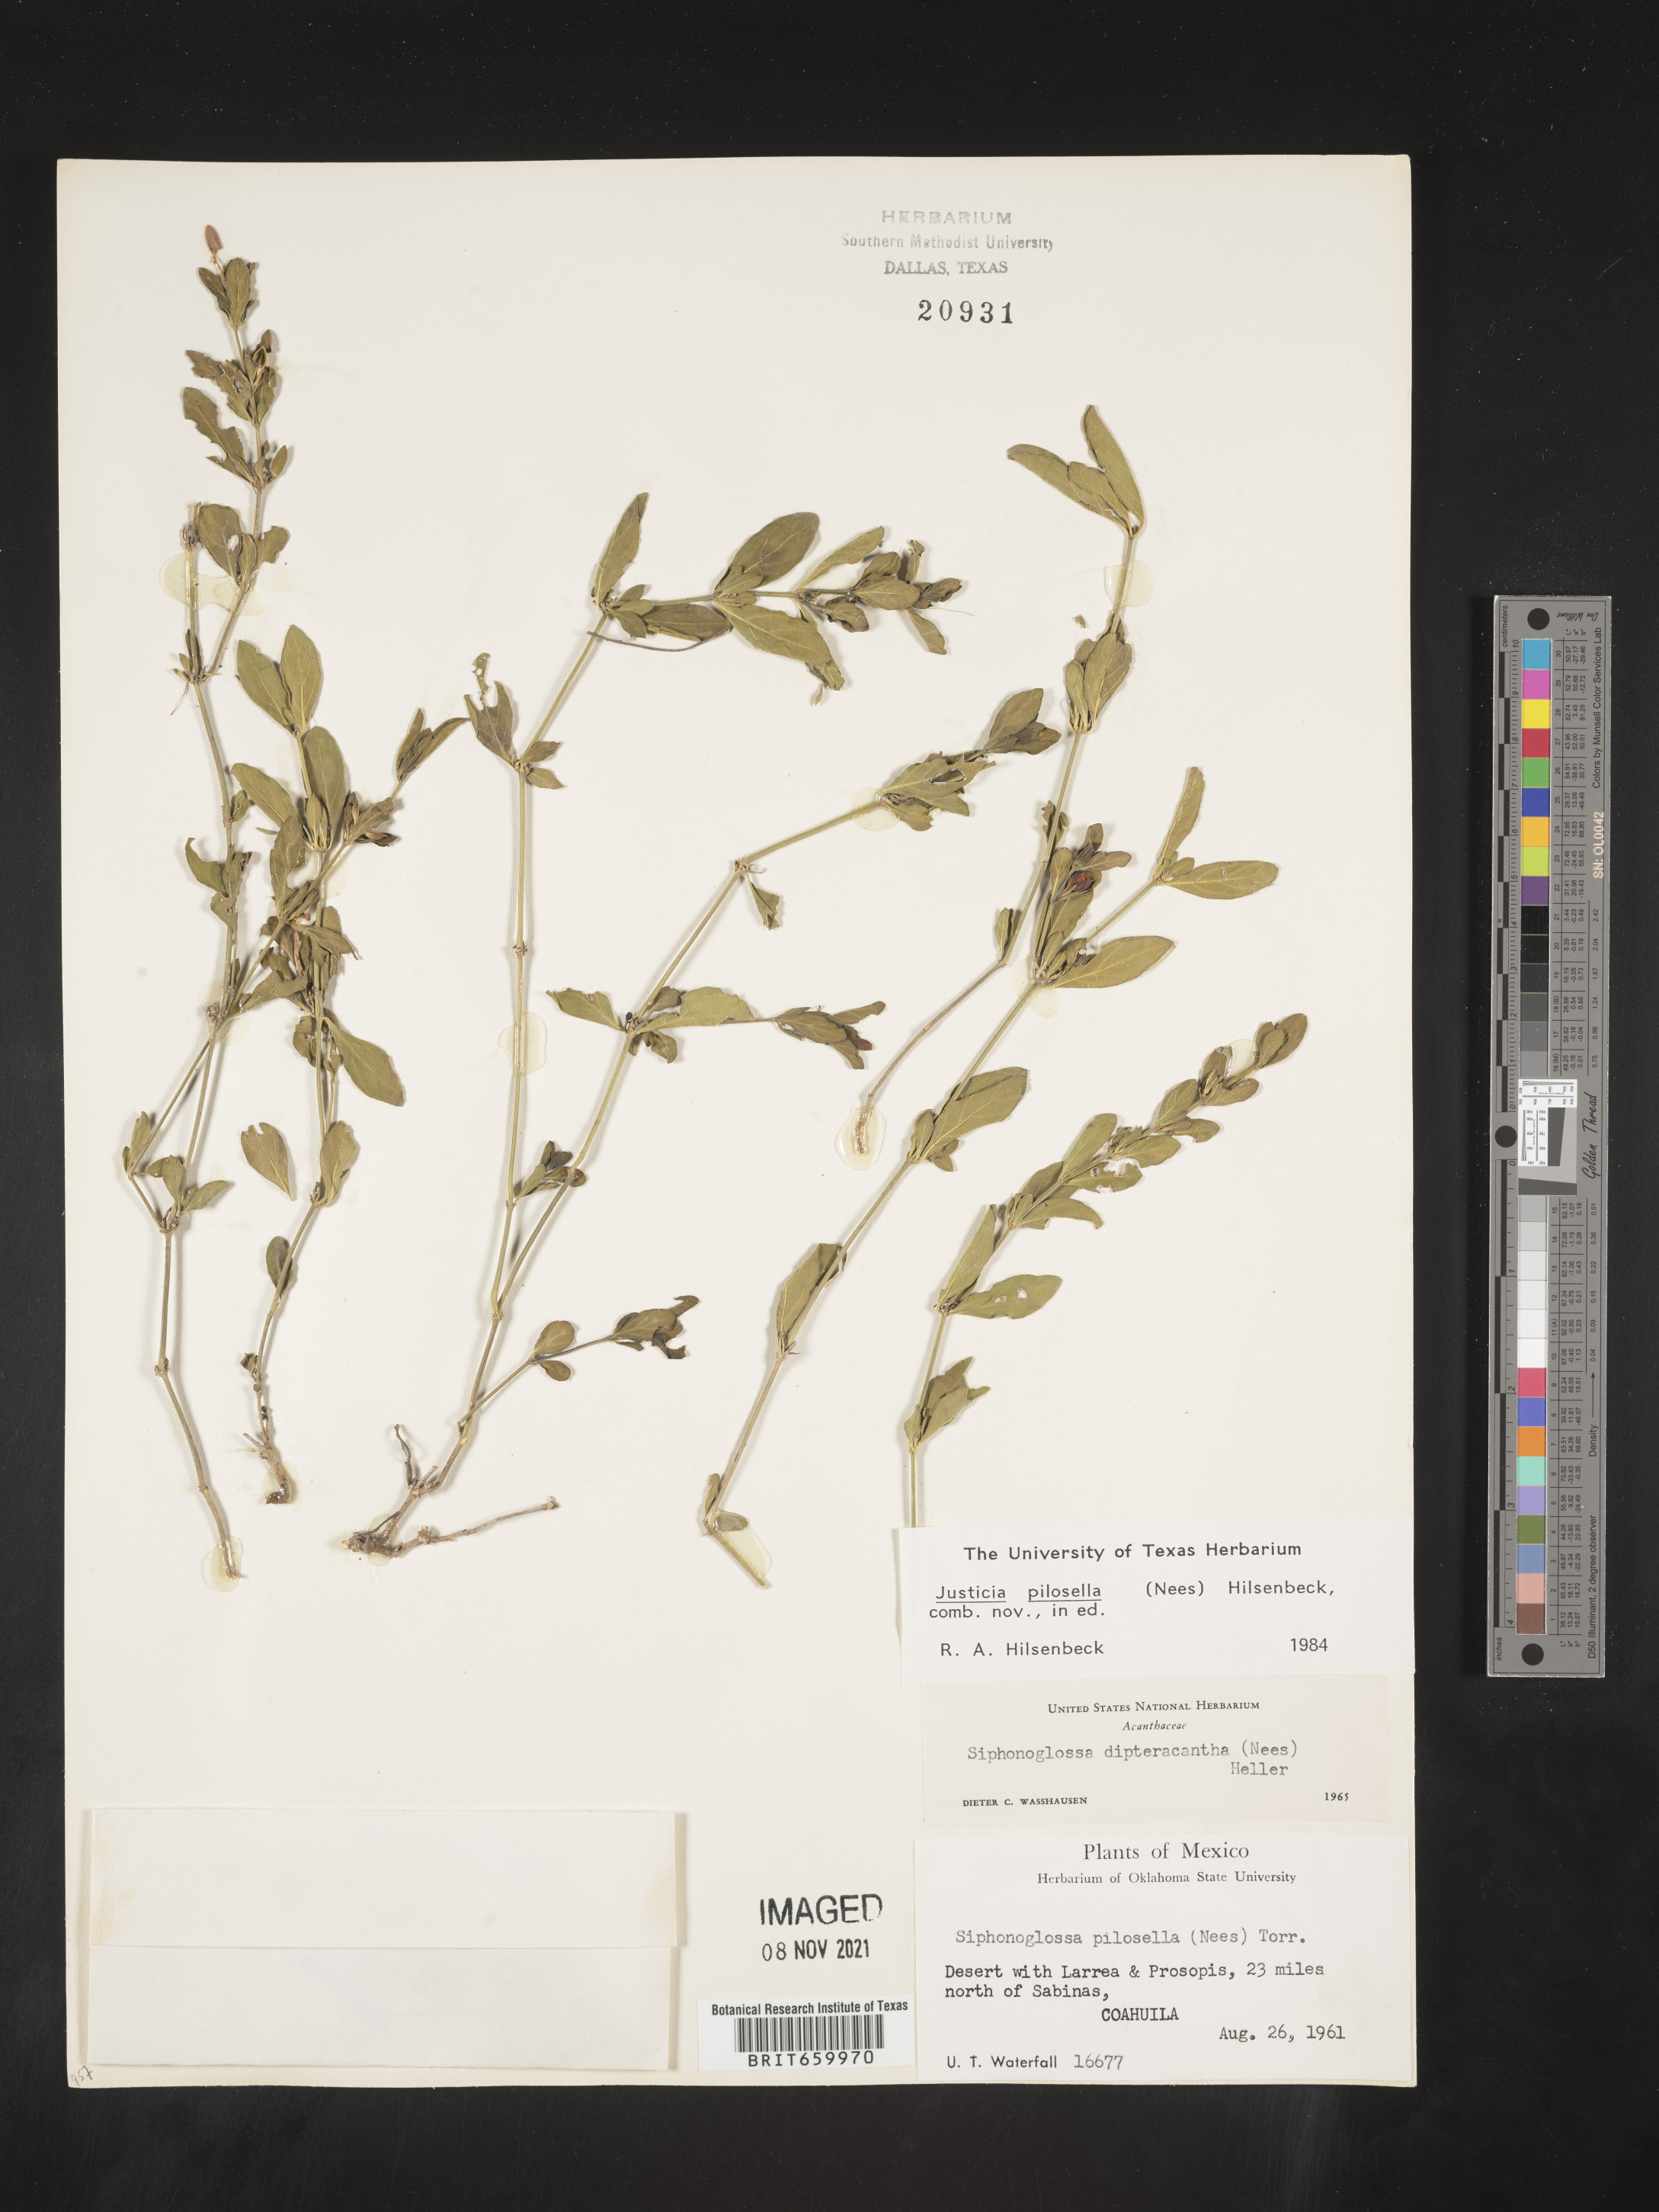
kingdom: Plantae
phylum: Tracheophyta
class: Magnoliopsida
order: Lamiales
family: Acanthaceae
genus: Justicia
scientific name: Justicia
